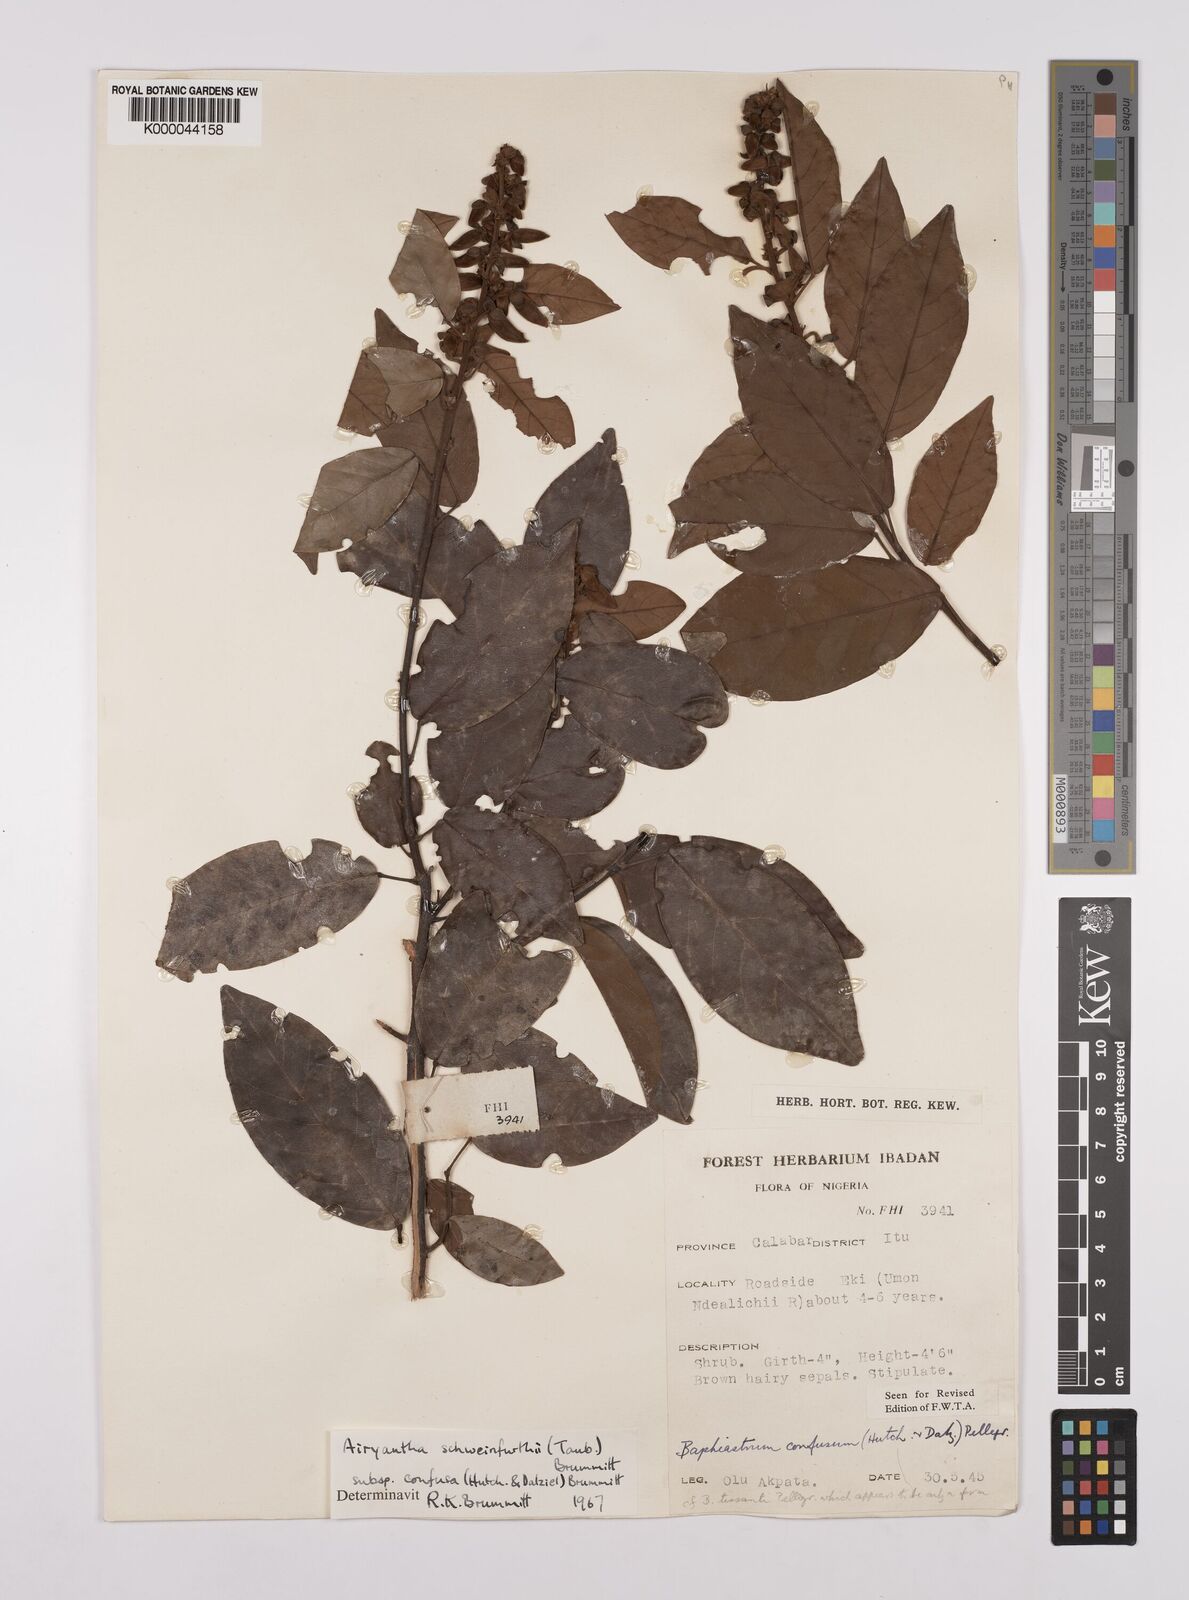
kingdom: Plantae
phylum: Tracheophyta
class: Magnoliopsida
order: Fabales
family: Fabaceae
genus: Airyantha
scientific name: Airyantha schweinfurthii
